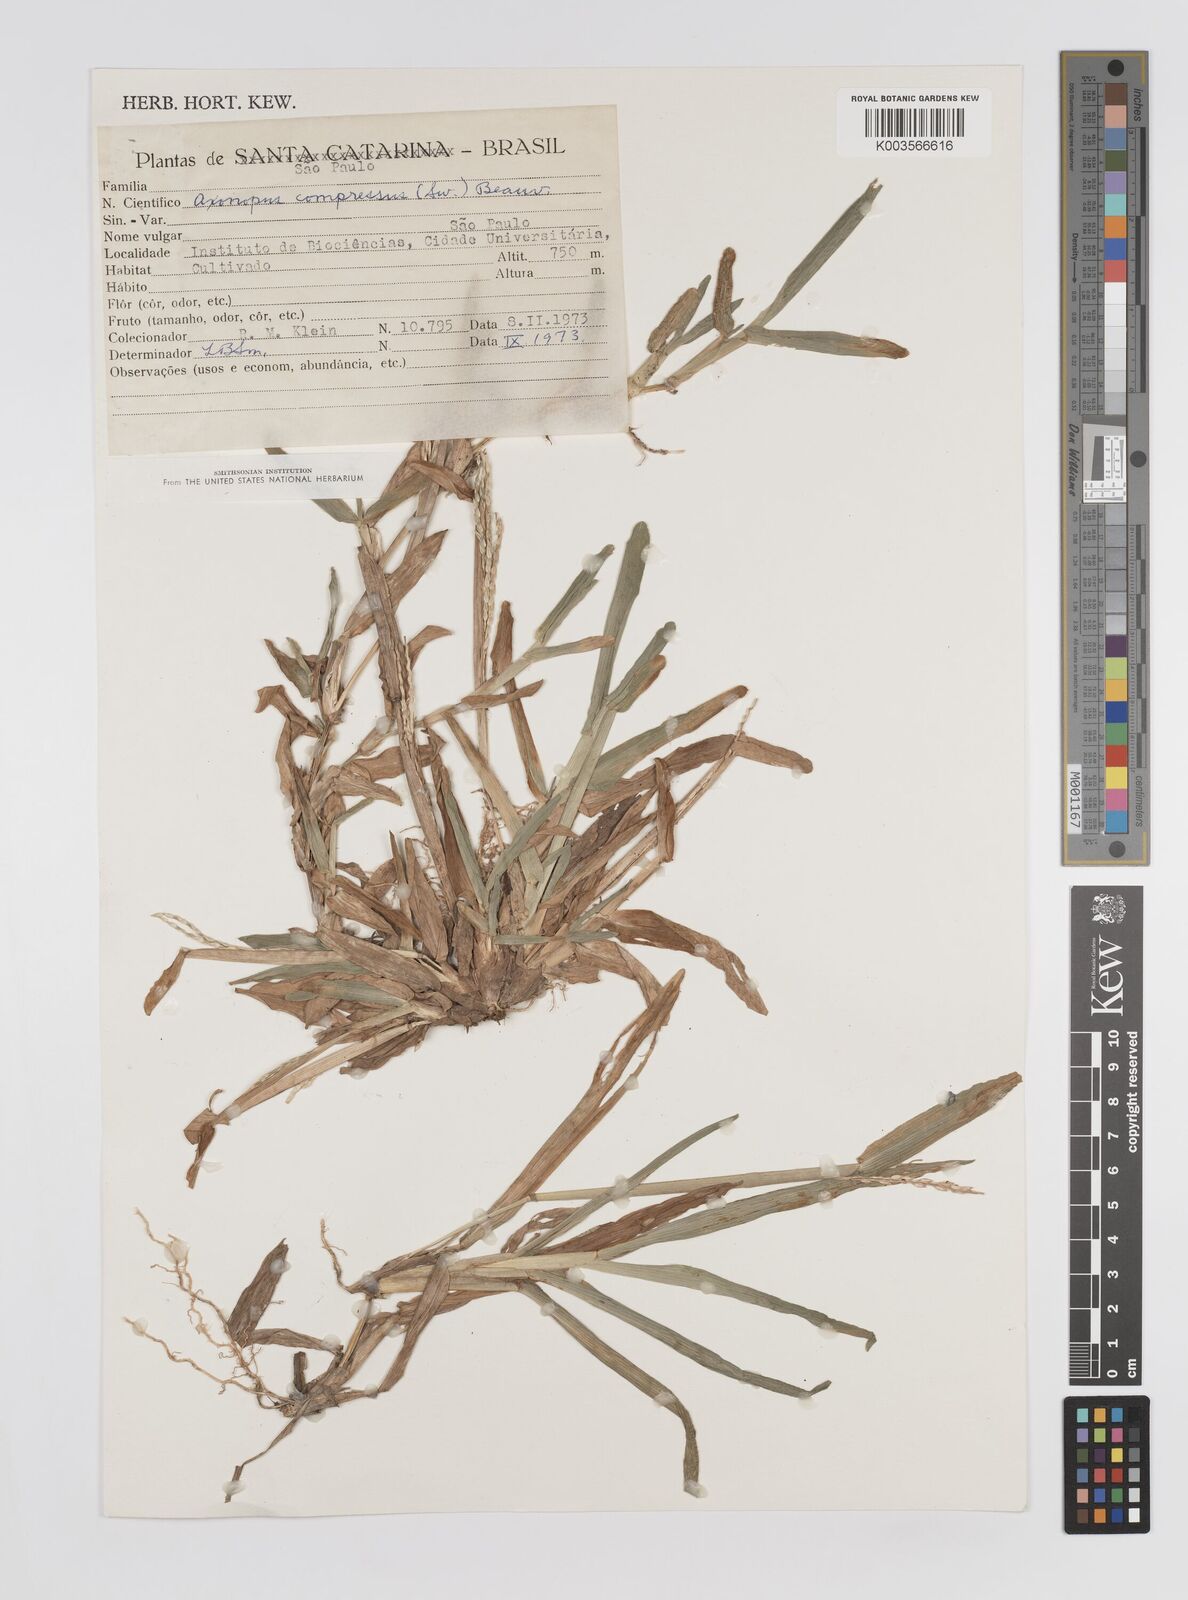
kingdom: Plantae
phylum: Tracheophyta
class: Liliopsida
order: Poales
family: Poaceae
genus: Axonopus
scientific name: Axonopus compressus
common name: American carpet grass
